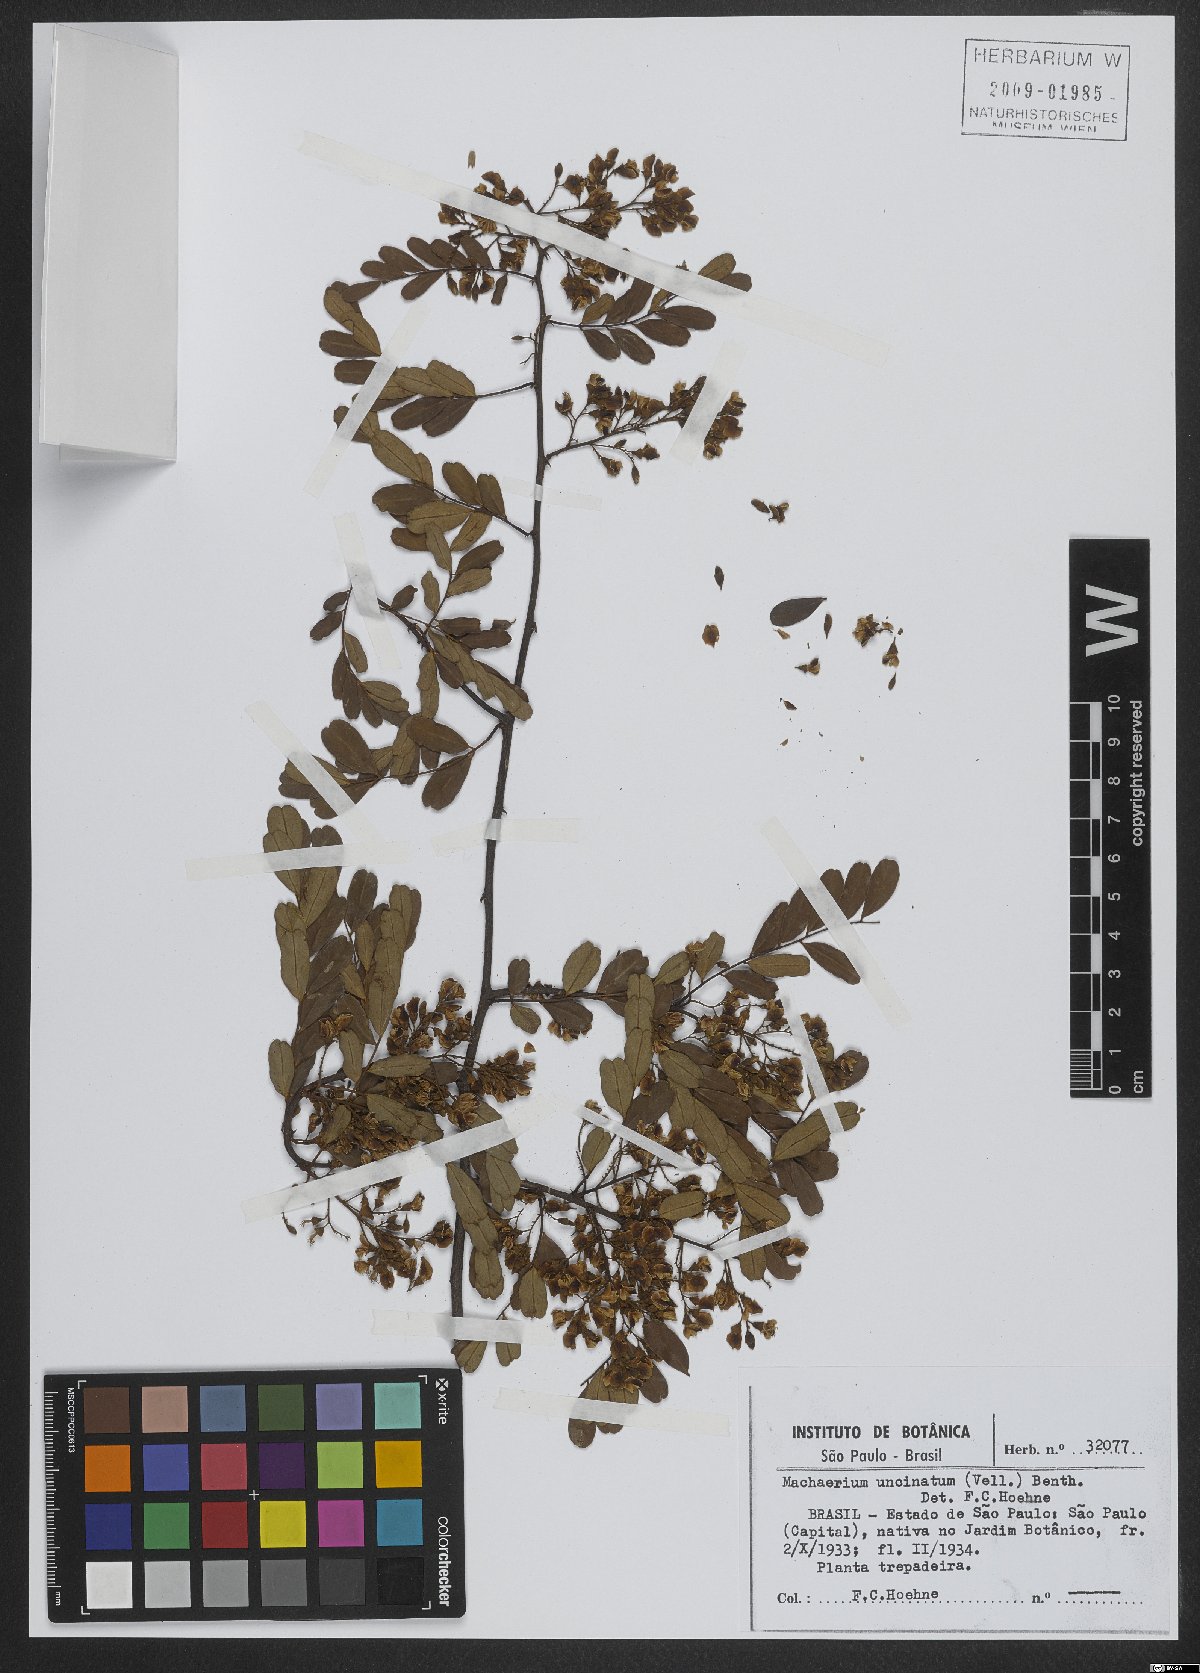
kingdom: Plantae
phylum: Tracheophyta
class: Magnoliopsida
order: Fabales
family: Fabaceae
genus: Machaerium
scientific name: Machaerium uncinatum
